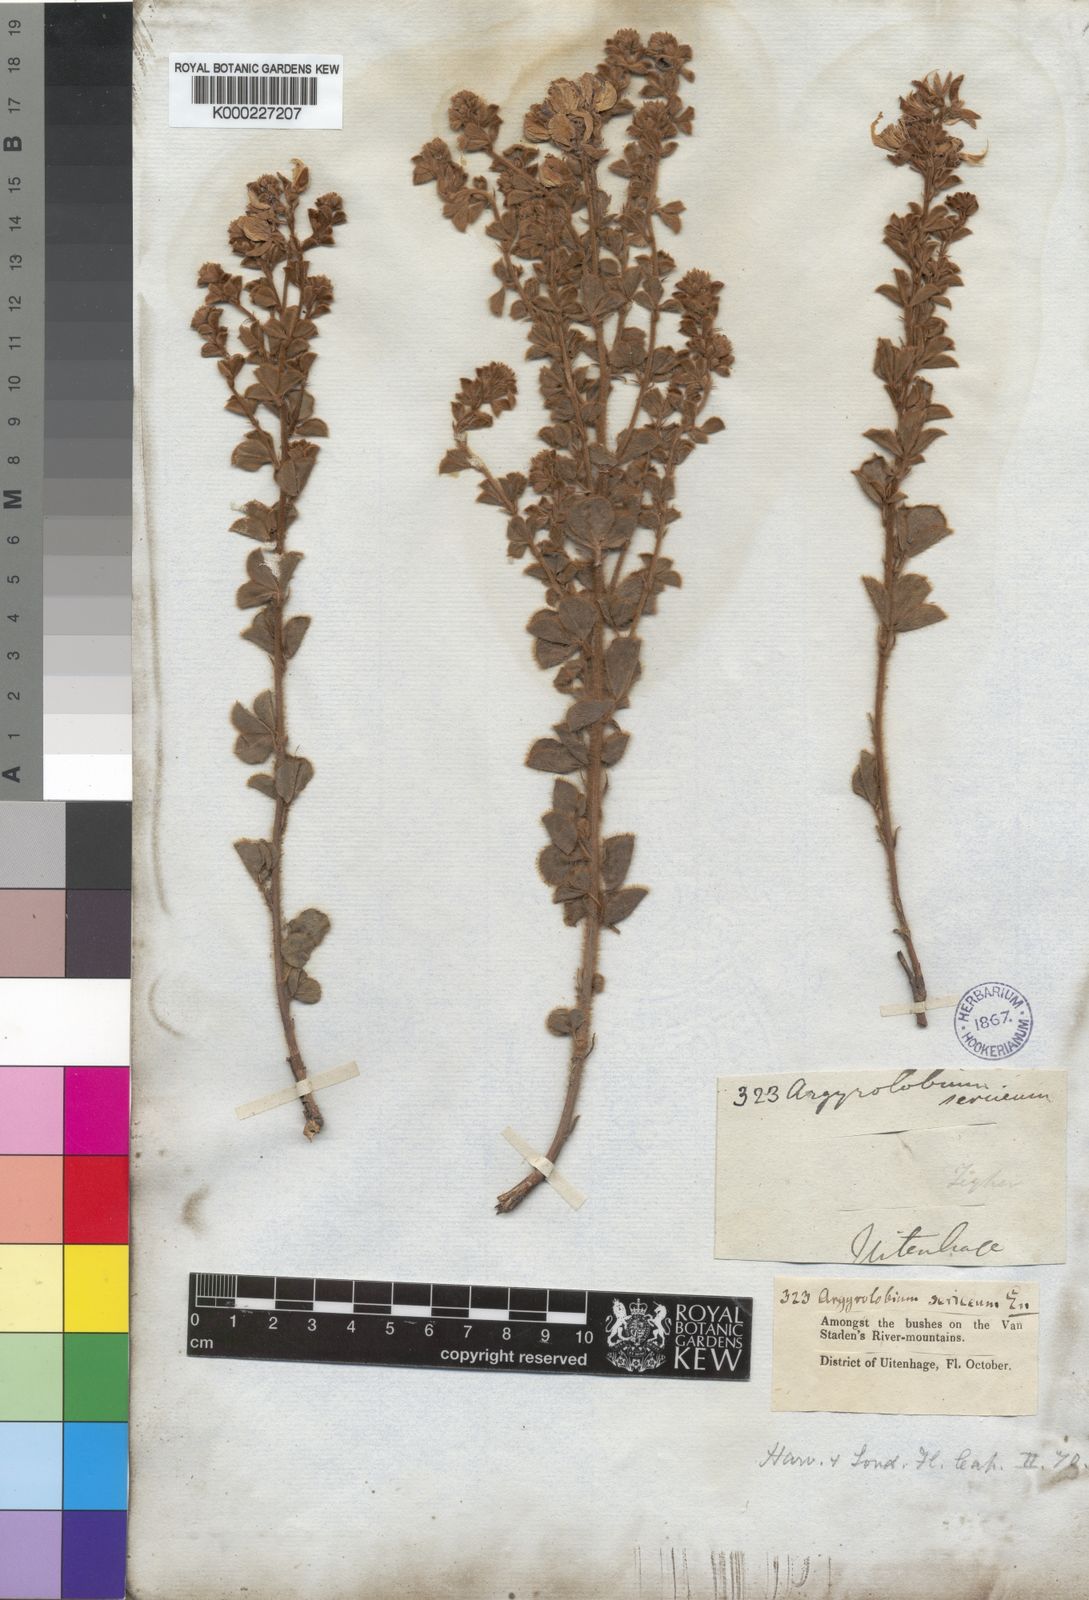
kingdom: Plantae
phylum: Tracheophyta
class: Magnoliopsida
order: Fabales
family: Fabaceae
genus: Argyrolobium
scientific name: Argyrolobium trifoliatum
